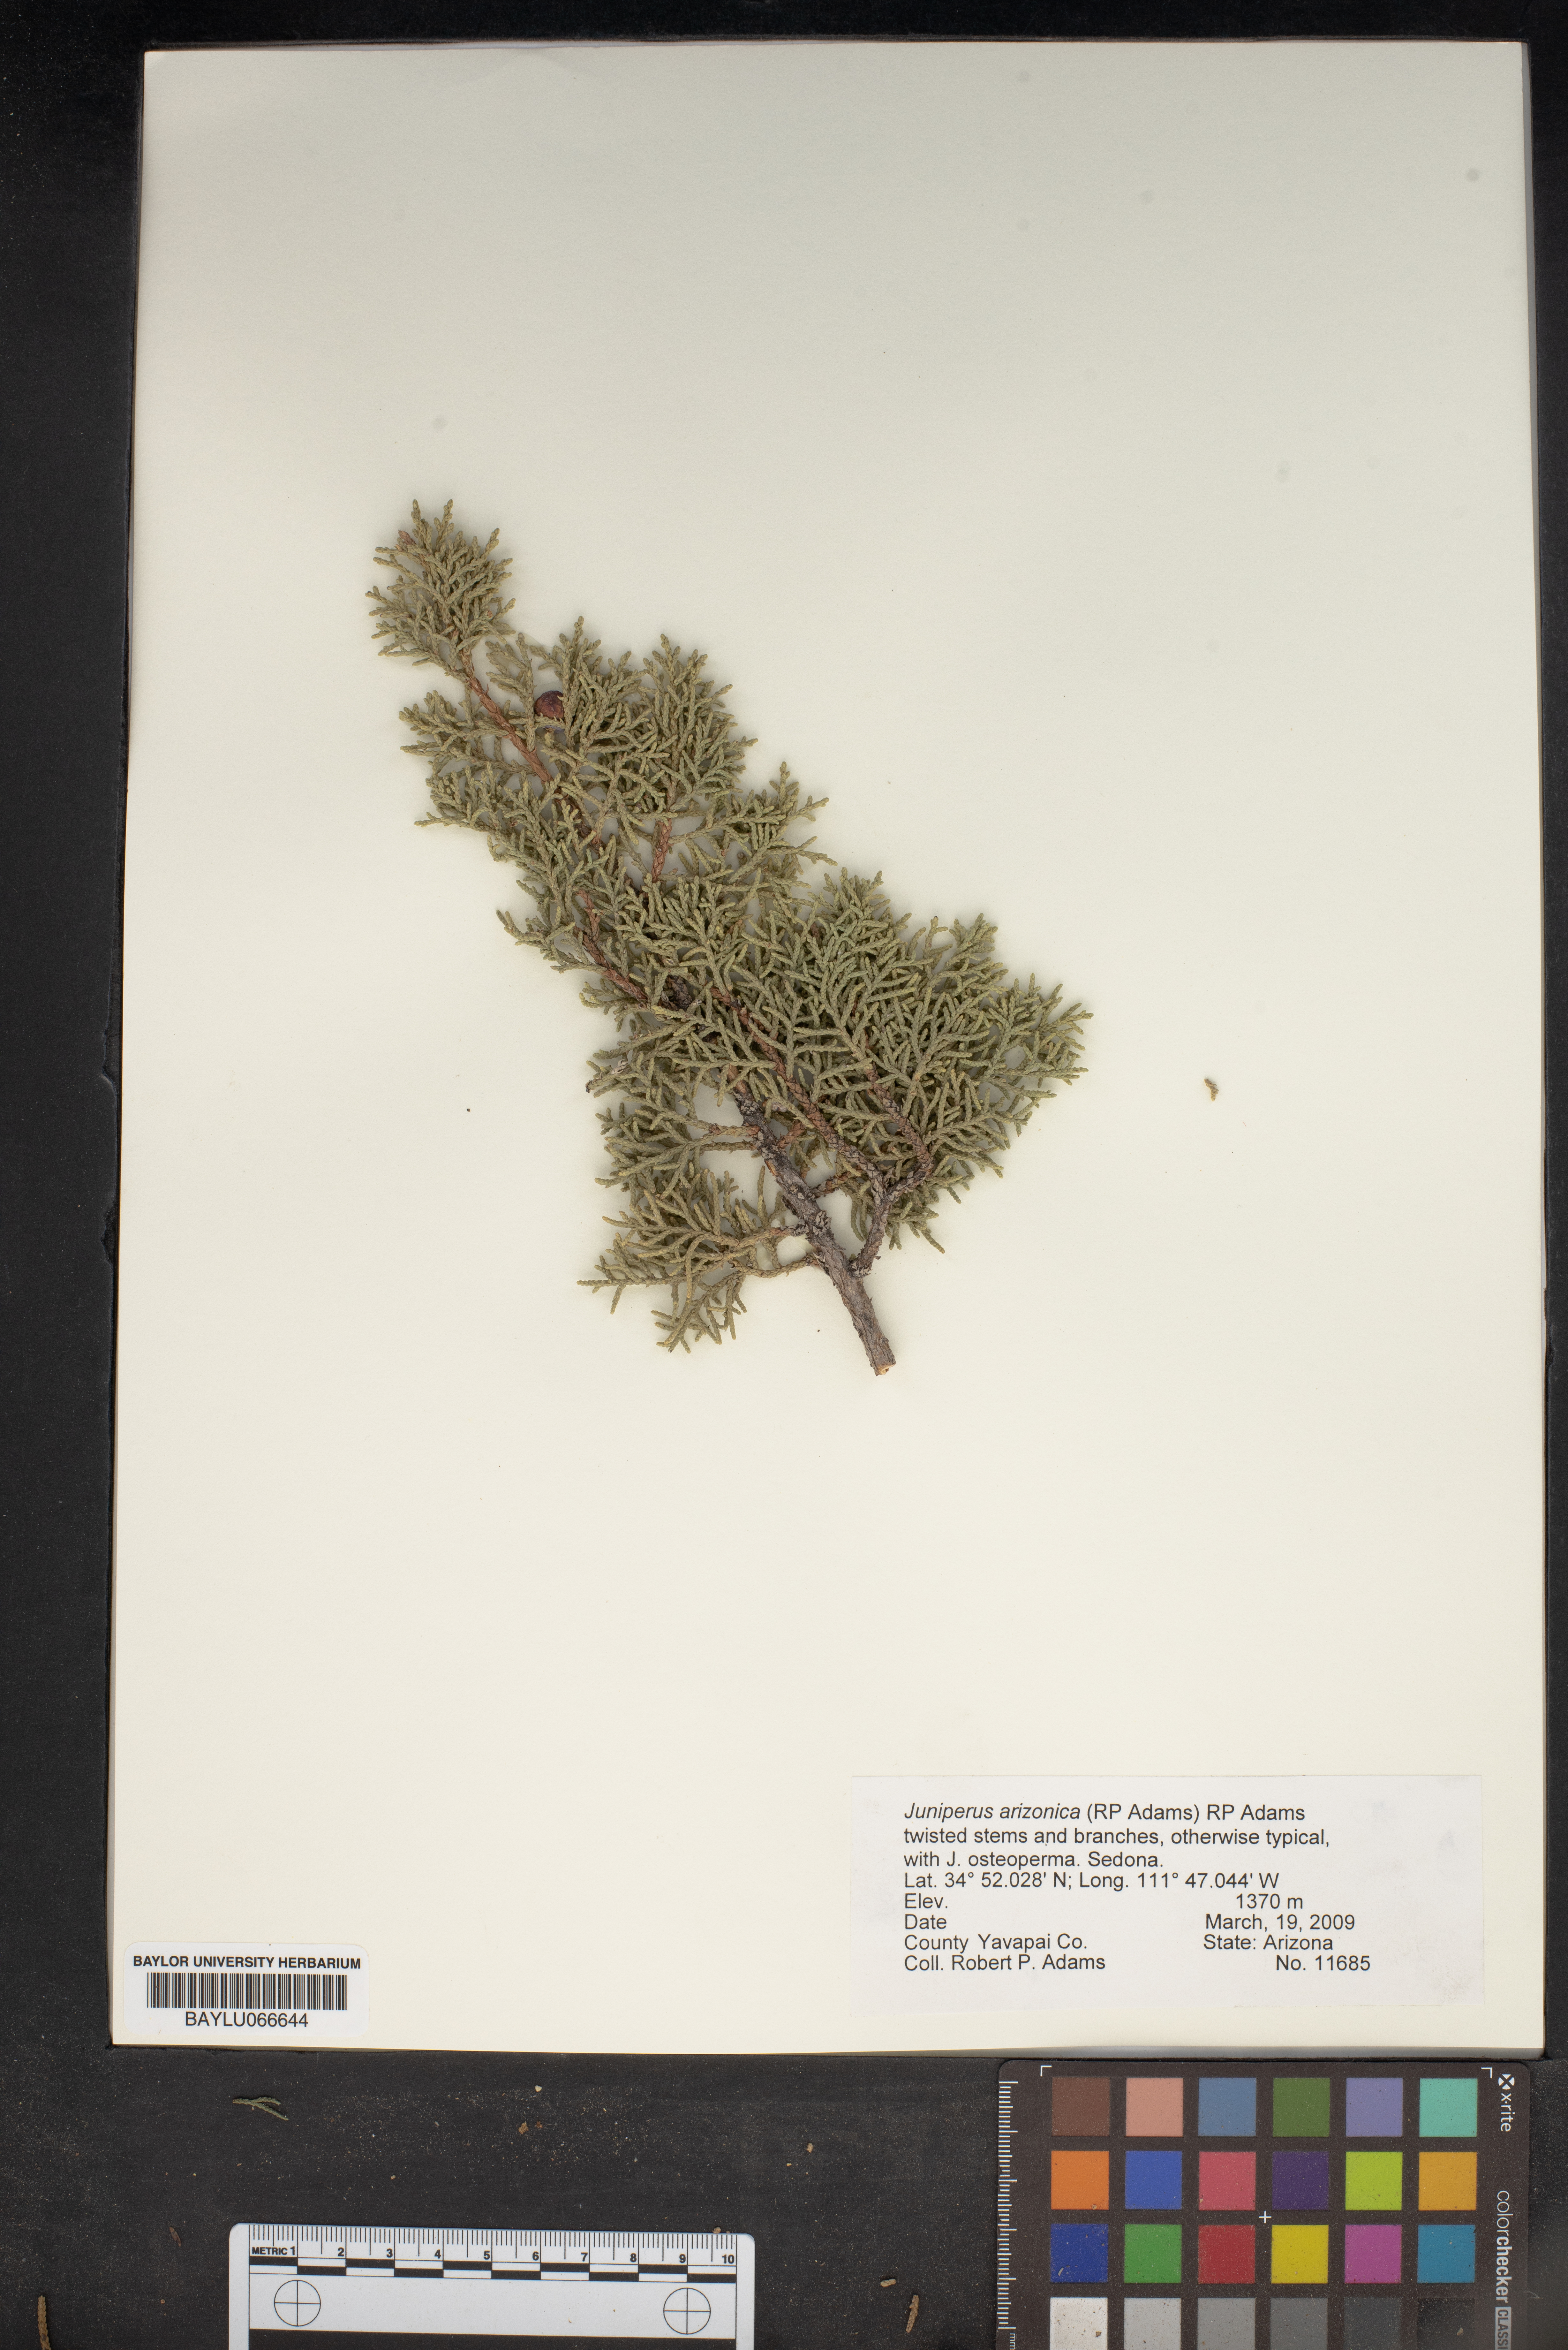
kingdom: Plantae
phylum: Tracheophyta
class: Pinopsida
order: Pinales
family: Cupressaceae
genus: Juniperus
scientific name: Juniperus arizonica
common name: Arizona juniper
